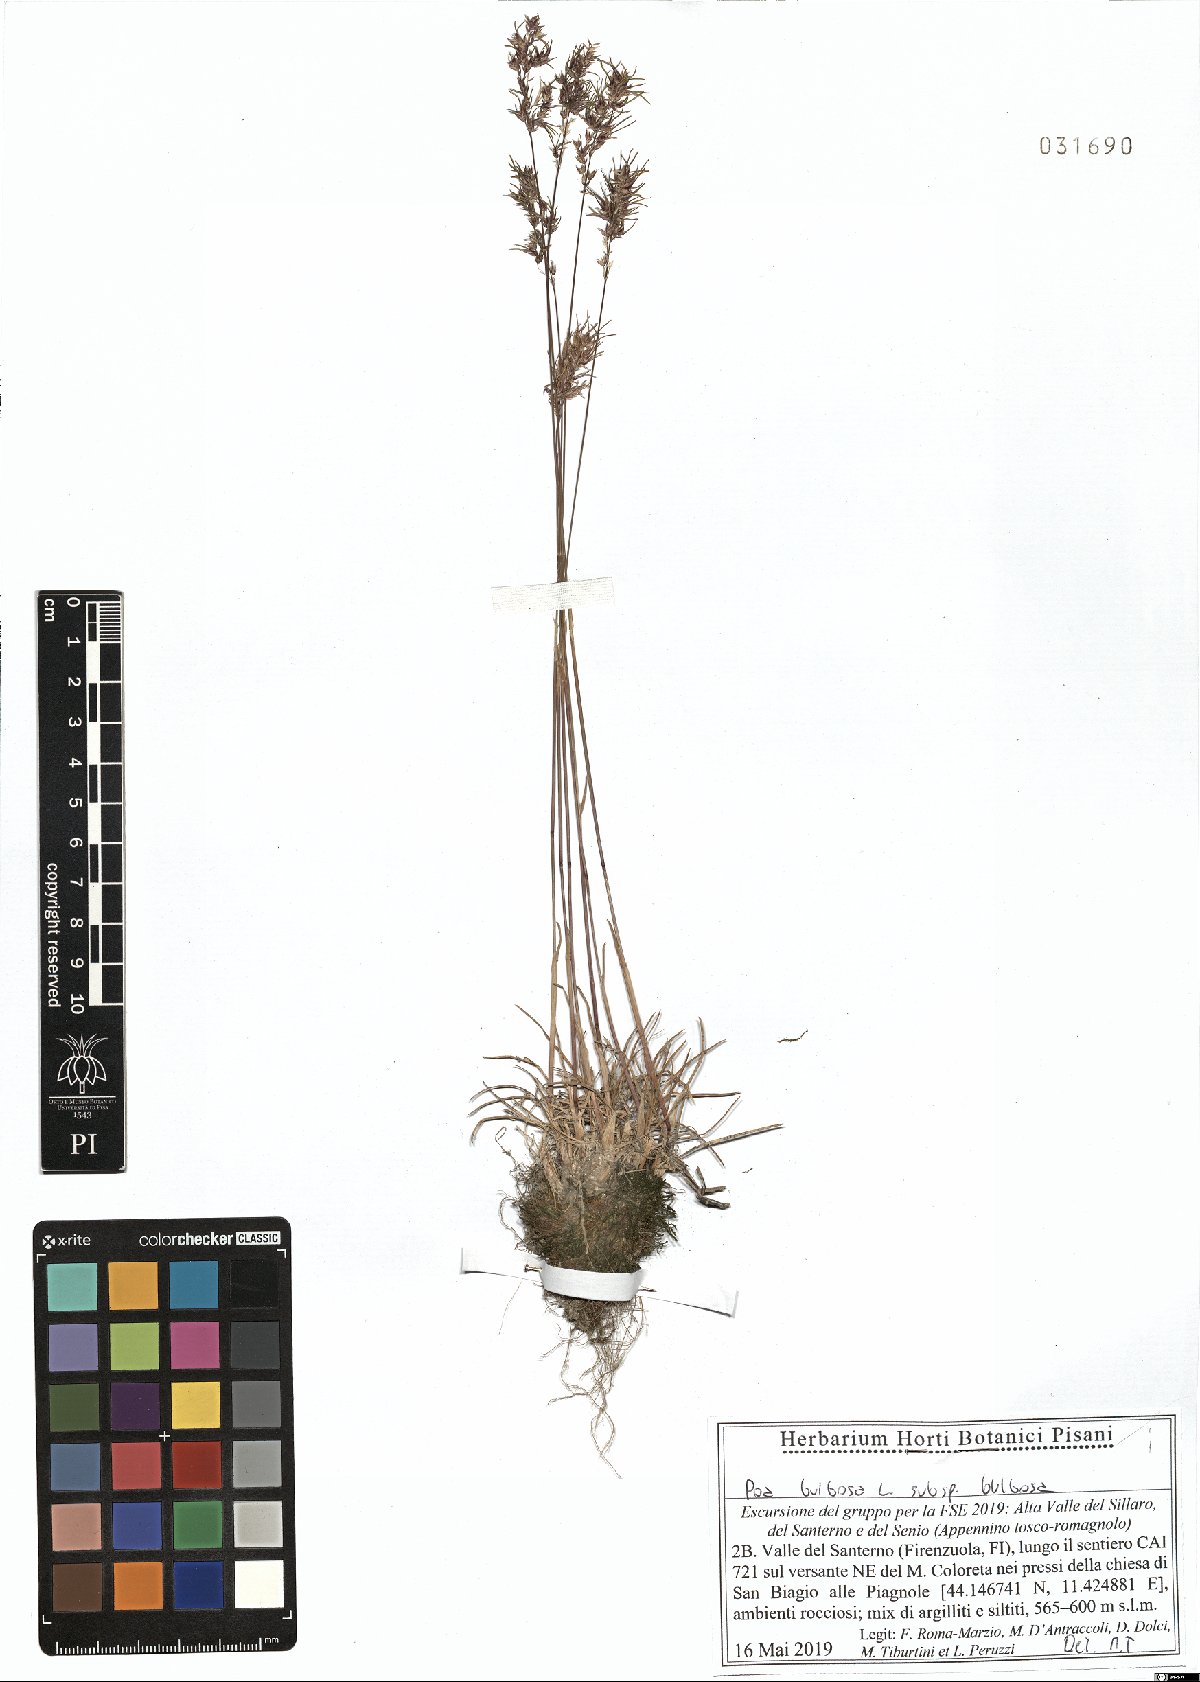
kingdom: Plantae
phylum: Tracheophyta
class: Liliopsida
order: Poales
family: Poaceae
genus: Poa
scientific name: Poa bulbosa
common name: Bulbous bluegrass
